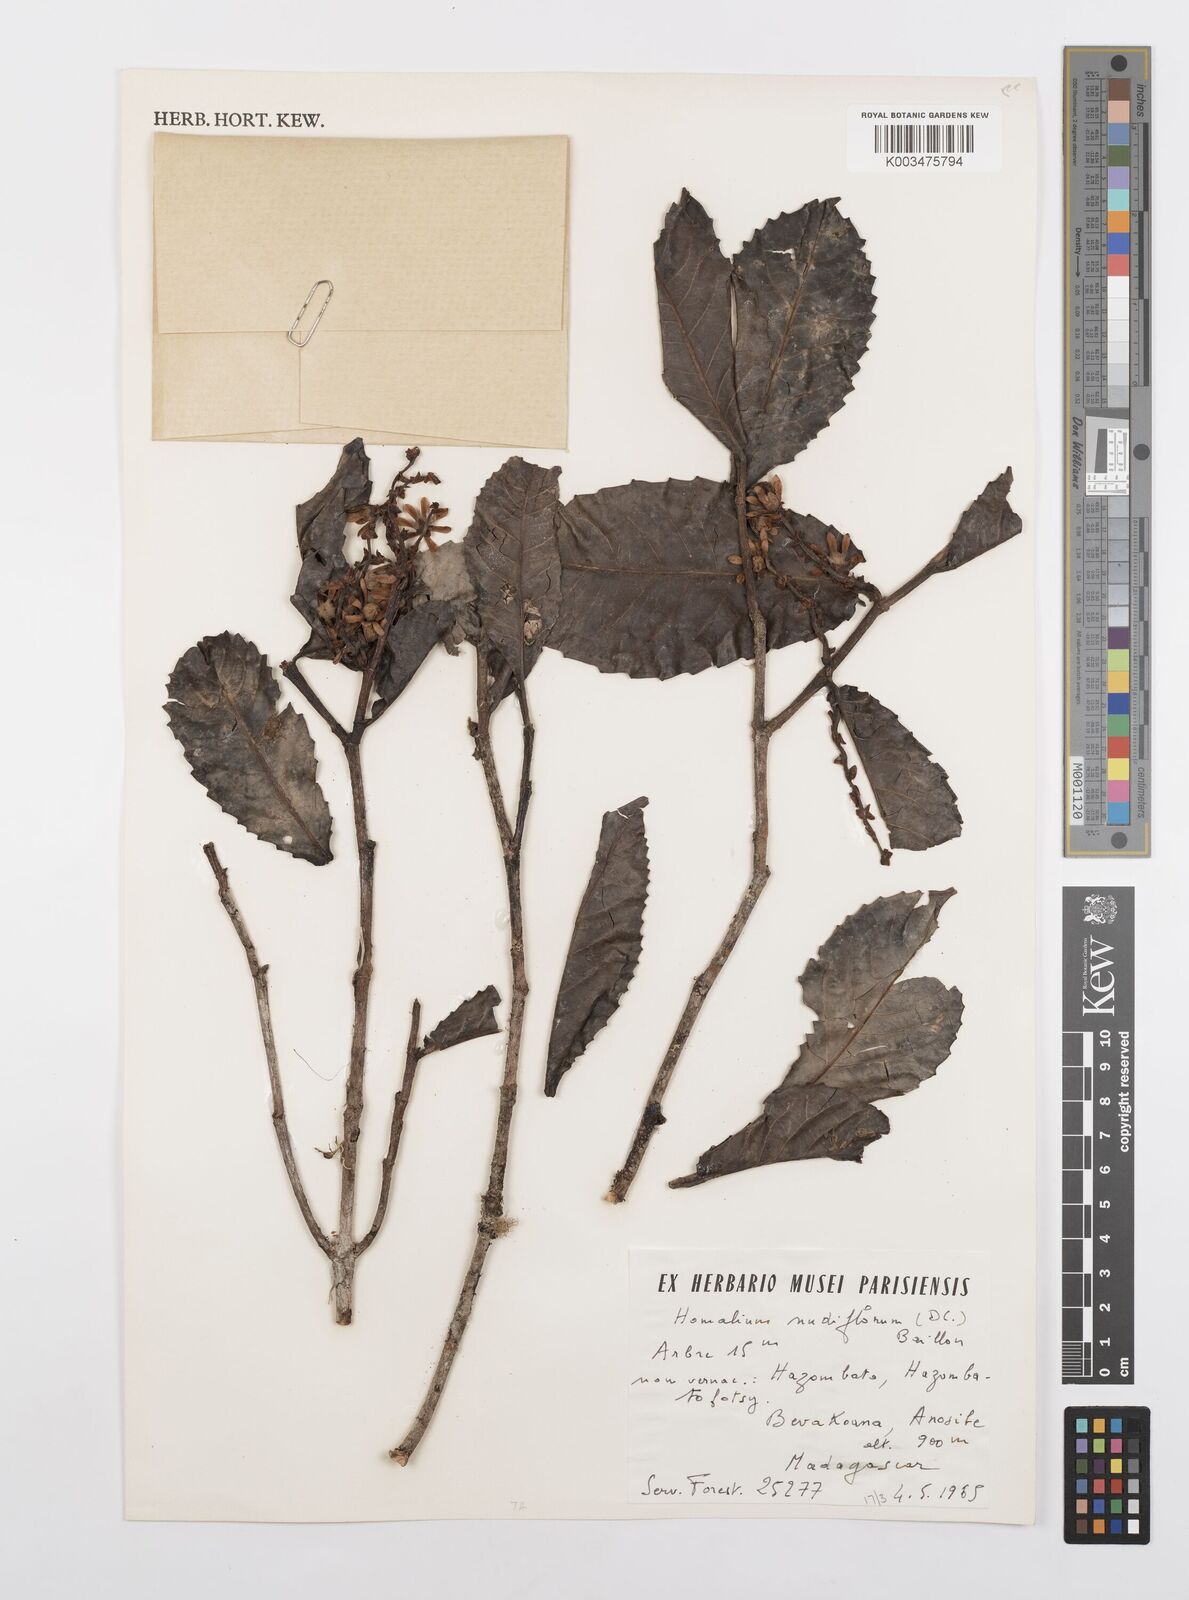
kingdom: Plantae
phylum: Tracheophyta
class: Magnoliopsida
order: Malpighiales
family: Salicaceae
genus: Homalium
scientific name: Homalium nudiflorum
